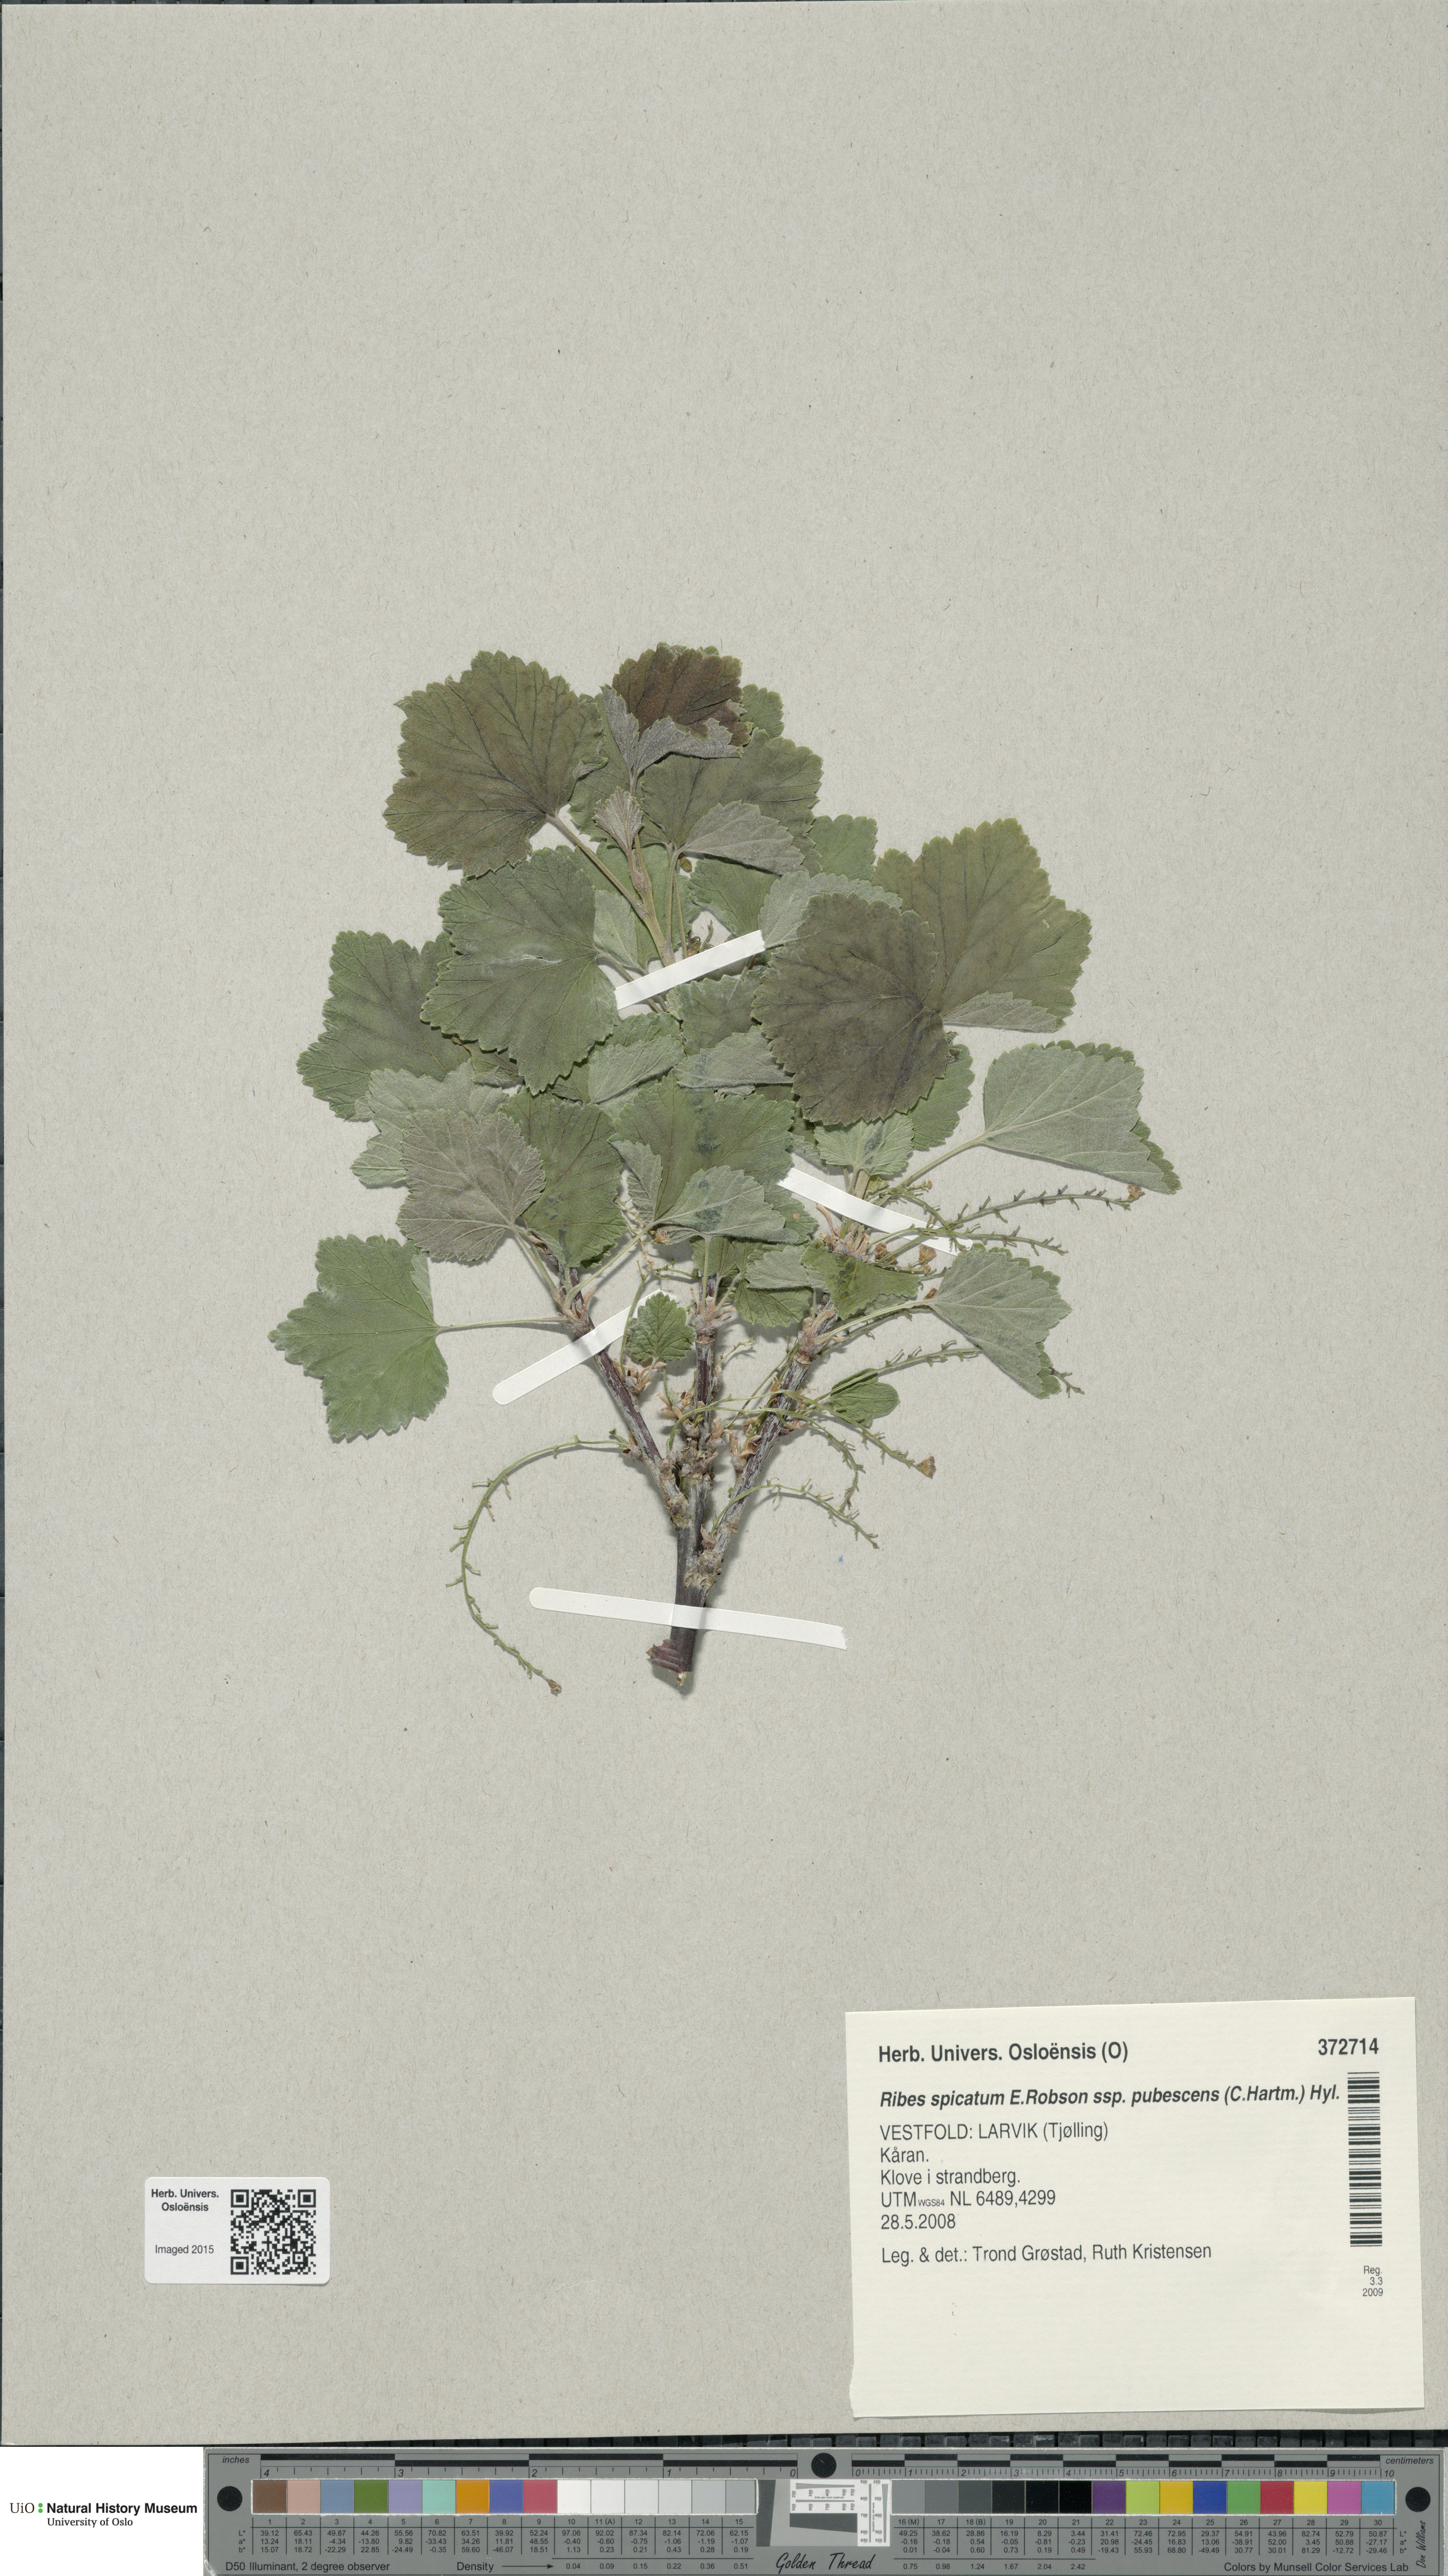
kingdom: Plantae
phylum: Tracheophyta
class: Magnoliopsida
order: Saxifragales
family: Grossulariaceae
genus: Ribes
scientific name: Ribes spicatum
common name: Downy currant
